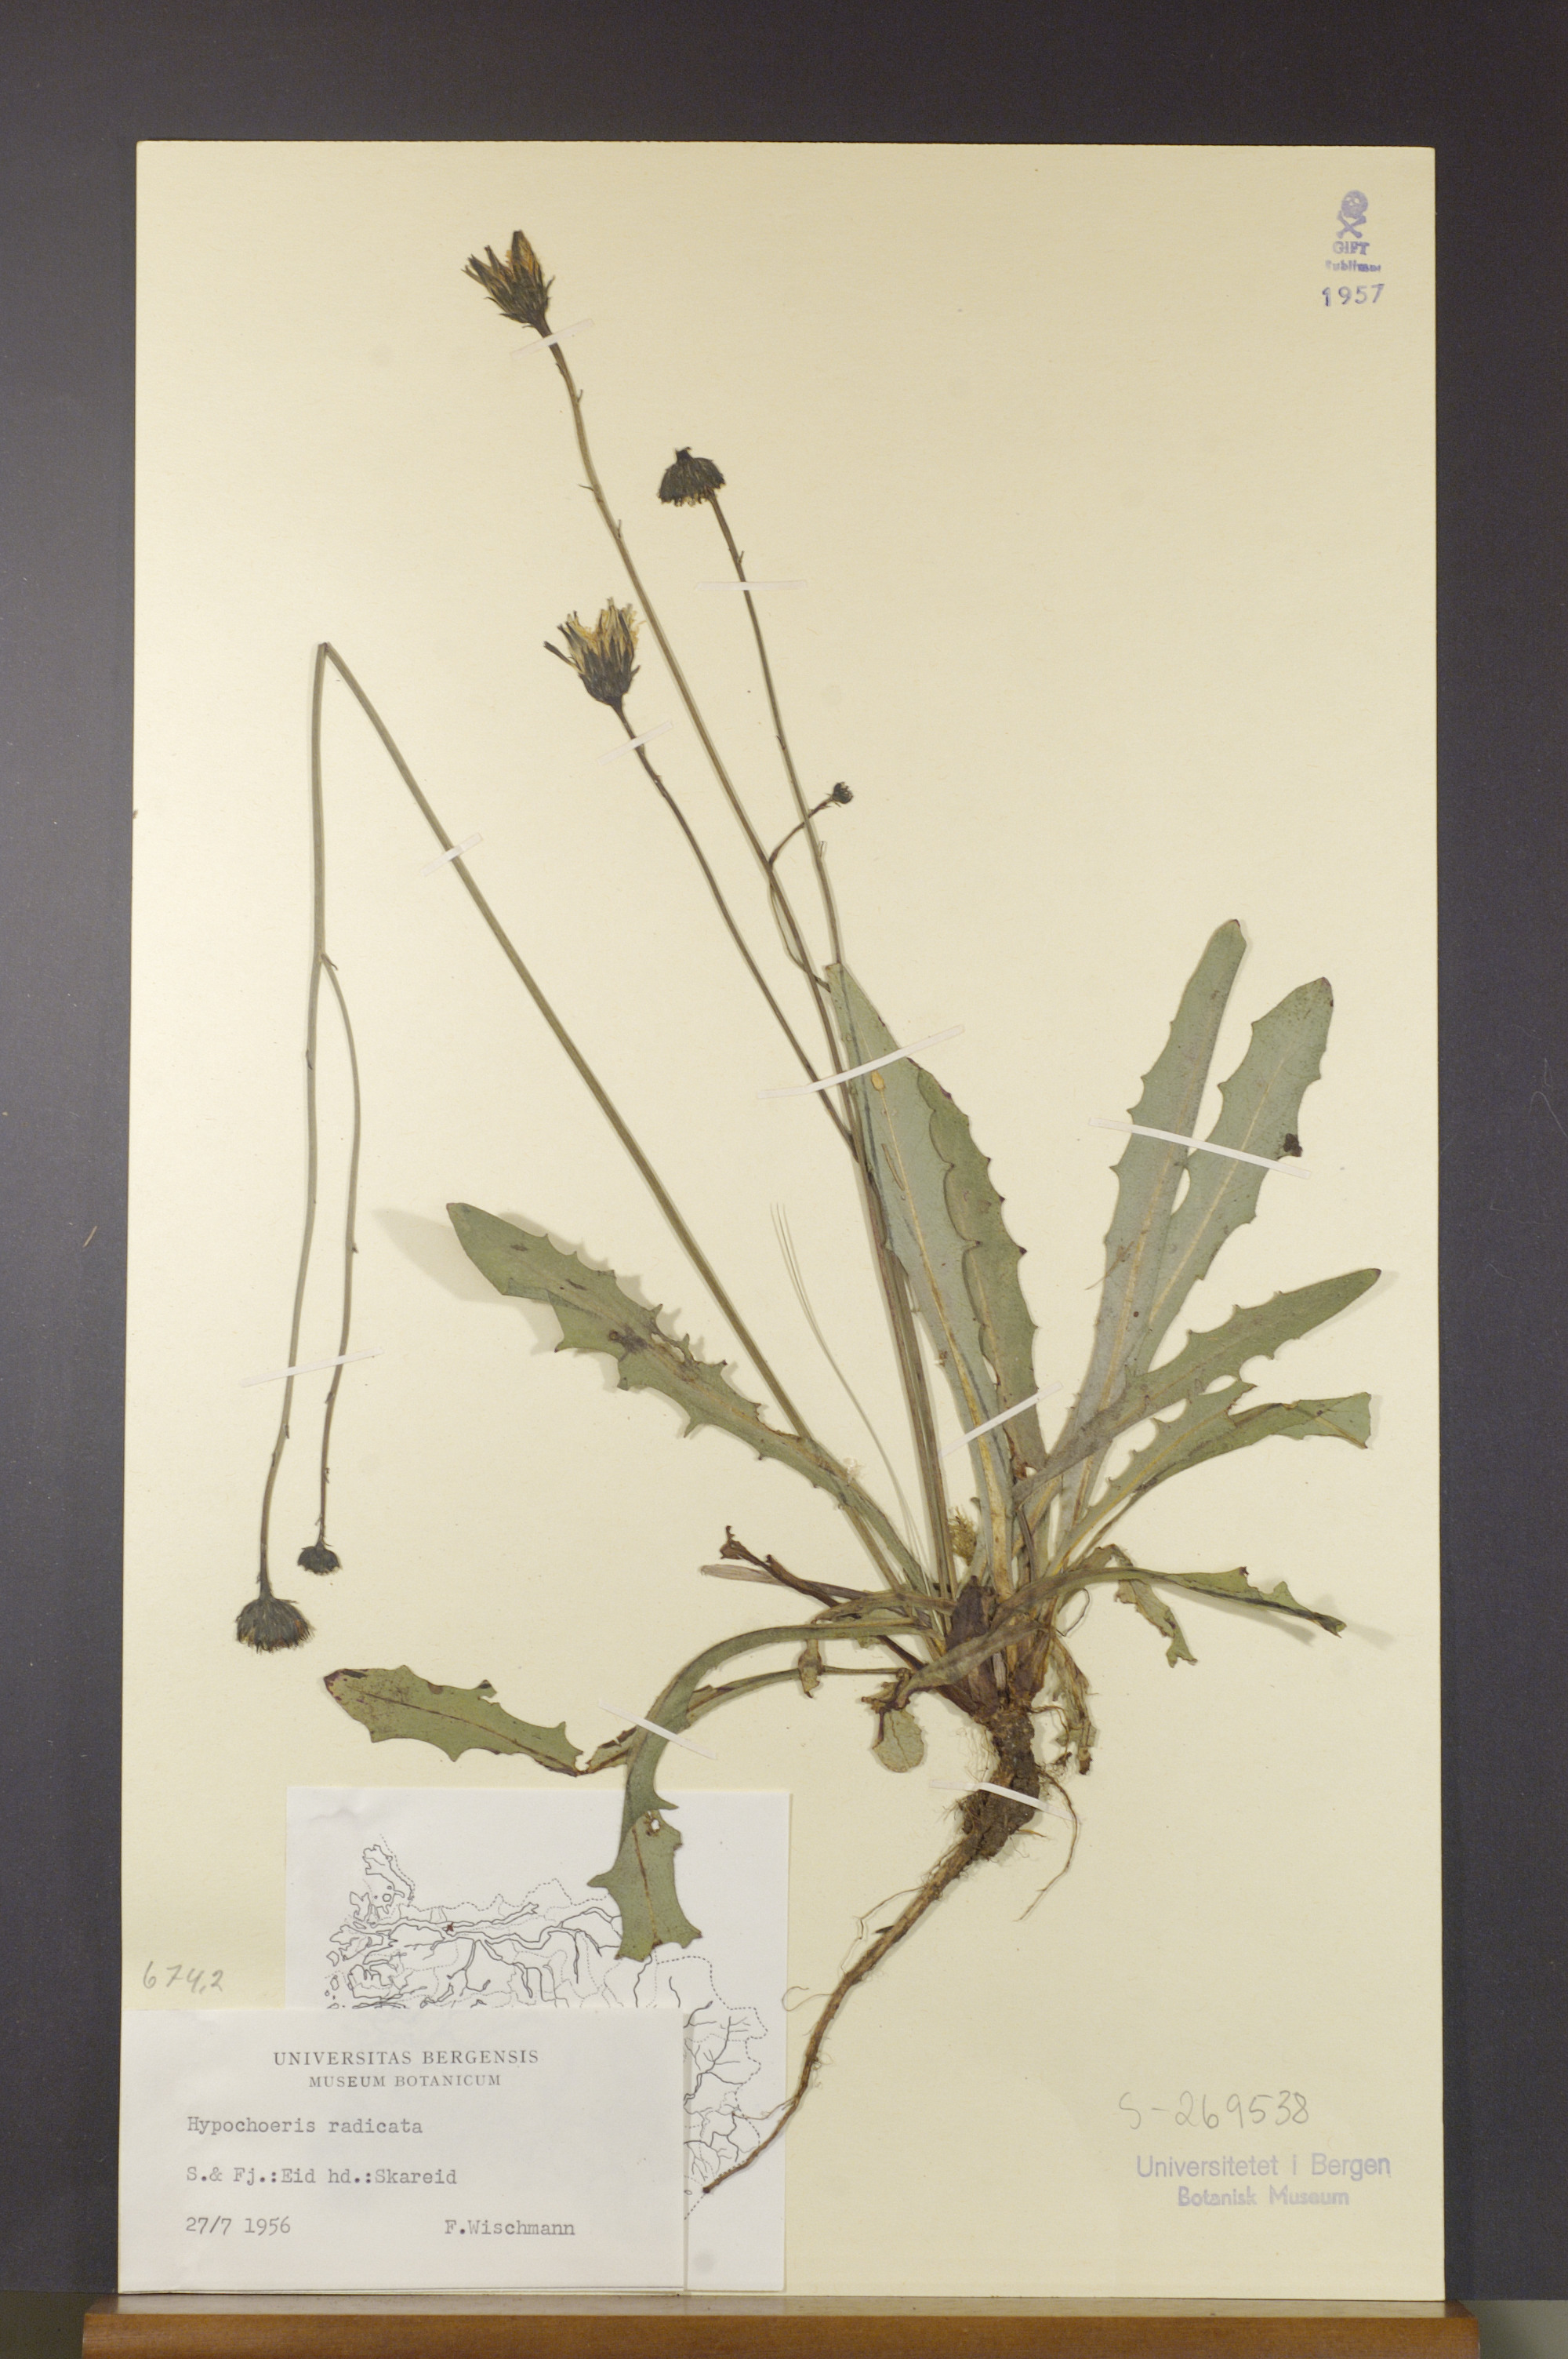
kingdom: Plantae
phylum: Tracheophyta
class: Magnoliopsida
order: Asterales
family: Asteraceae
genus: Hypochaeris
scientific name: Hypochaeris radicata
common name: Flatweed
